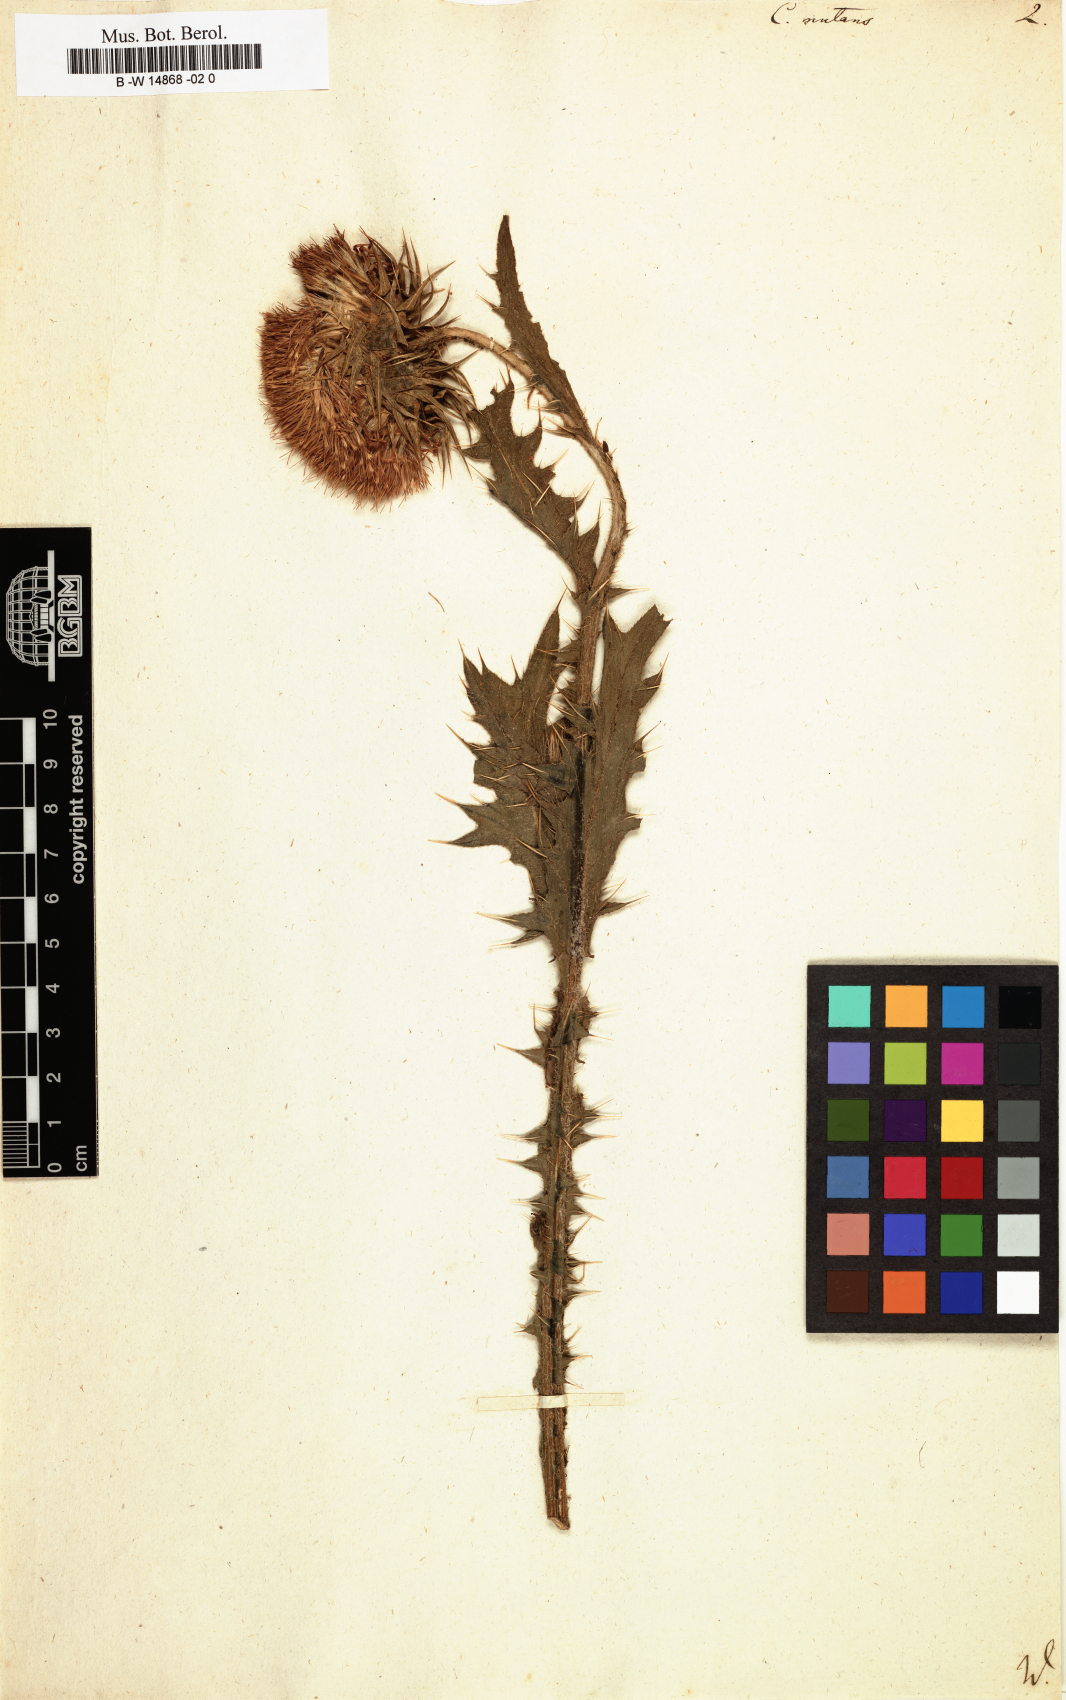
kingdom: Plantae
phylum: Tracheophyta
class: Magnoliopsida
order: Asterales
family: Asteraceae
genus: Carduus
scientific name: Carduus nutans
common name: Musk thistle
